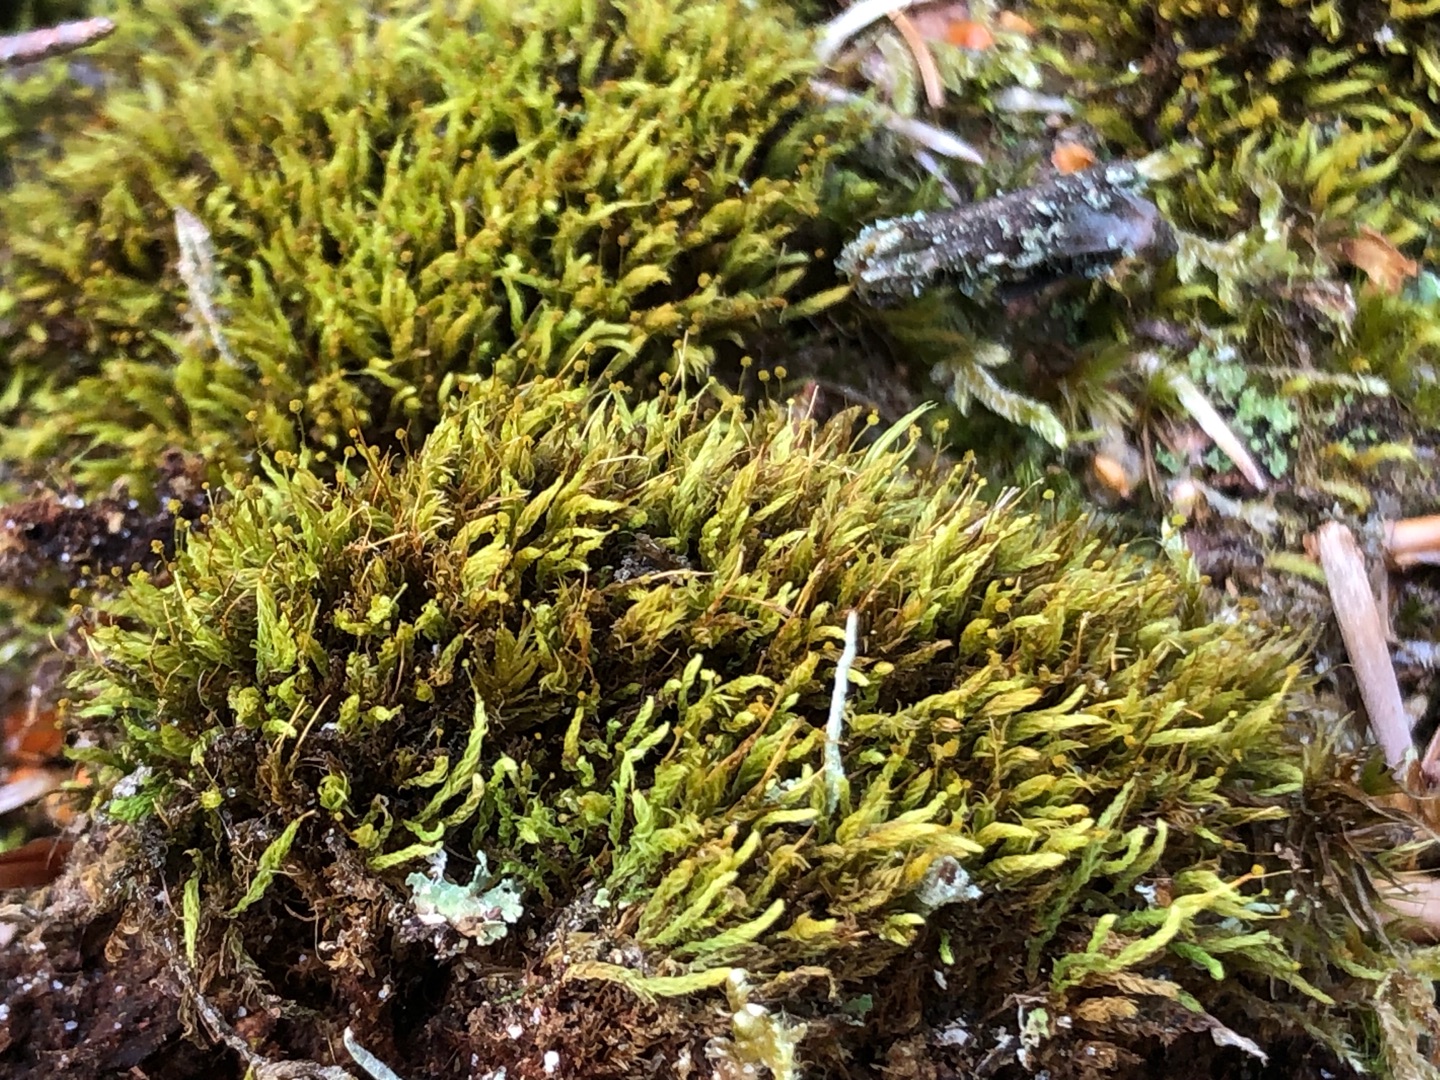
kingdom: Plantae
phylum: Bryophyta
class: Bryopsida
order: Aulacomniales
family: Aulacomniaceae
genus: Aulacomnium
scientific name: Aulacomnium androgynum
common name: Kugle-filtmos
